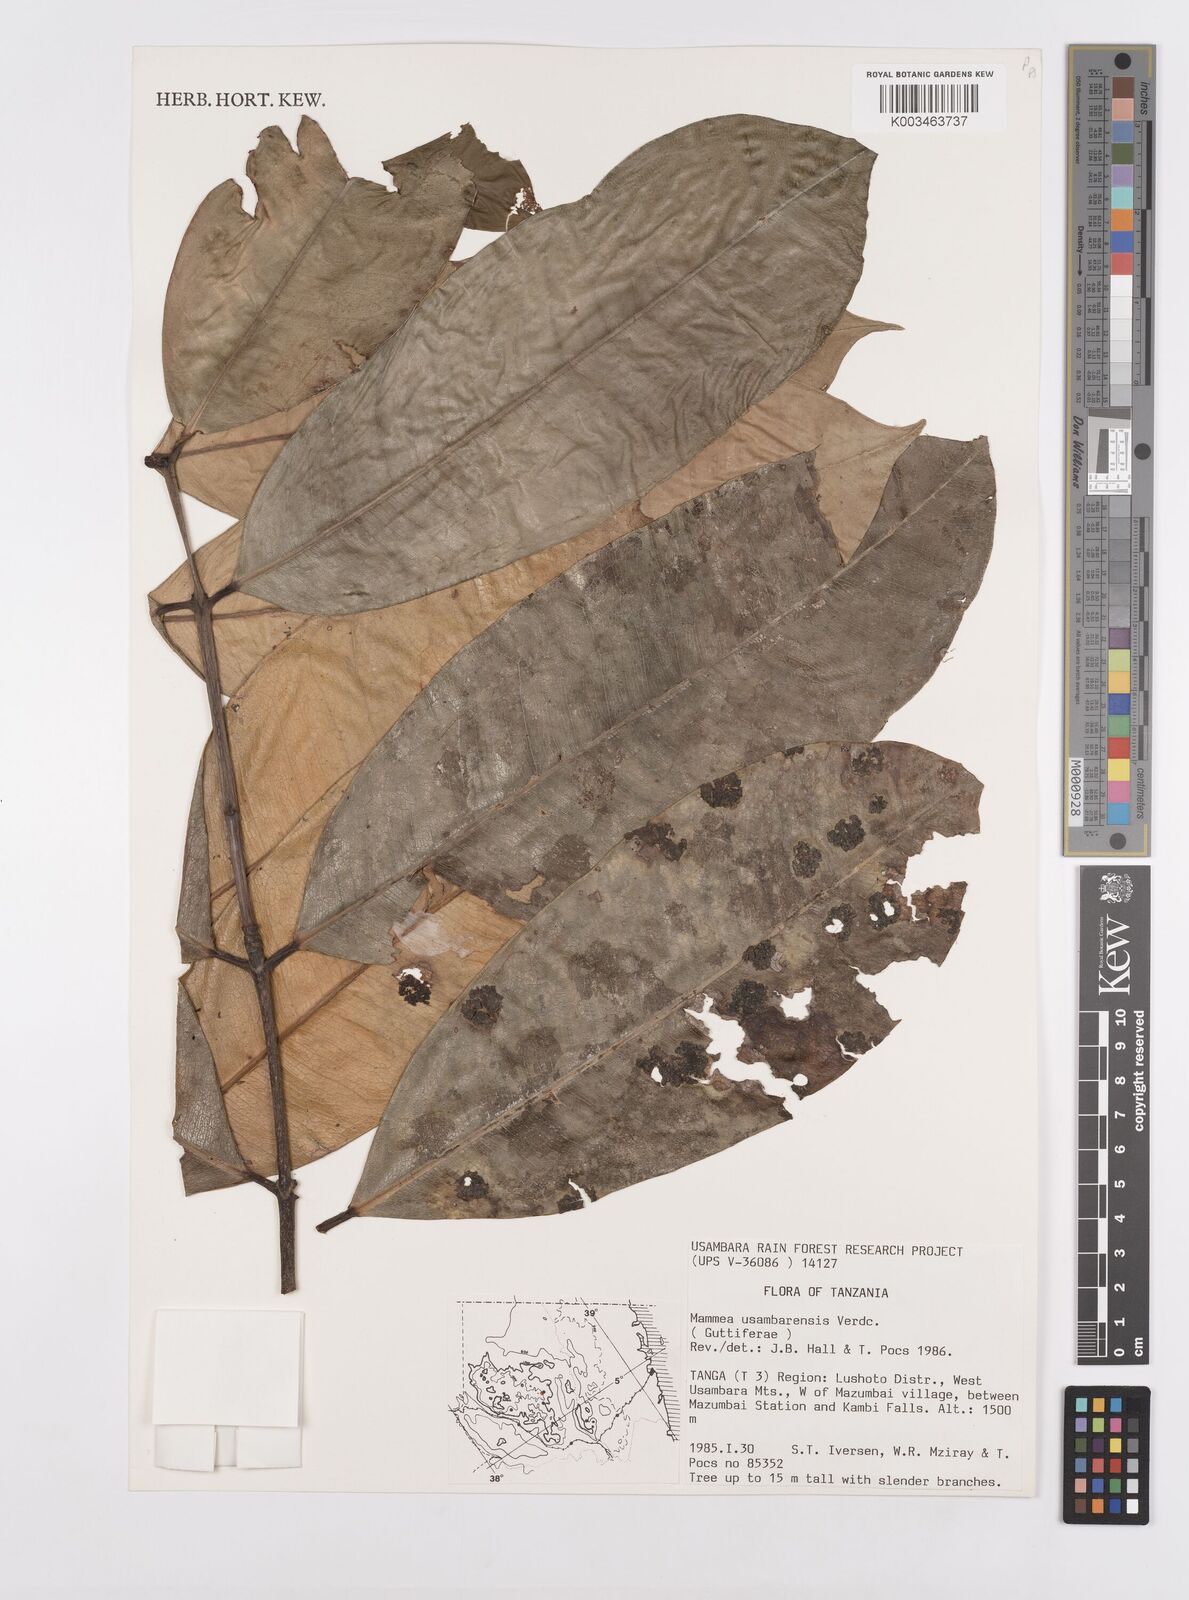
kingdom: Plantae
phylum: Tracheophyta
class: Magnoliopsida
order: Malpighiales
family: Calophyllaceae
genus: Mammea
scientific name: Mammea africana
